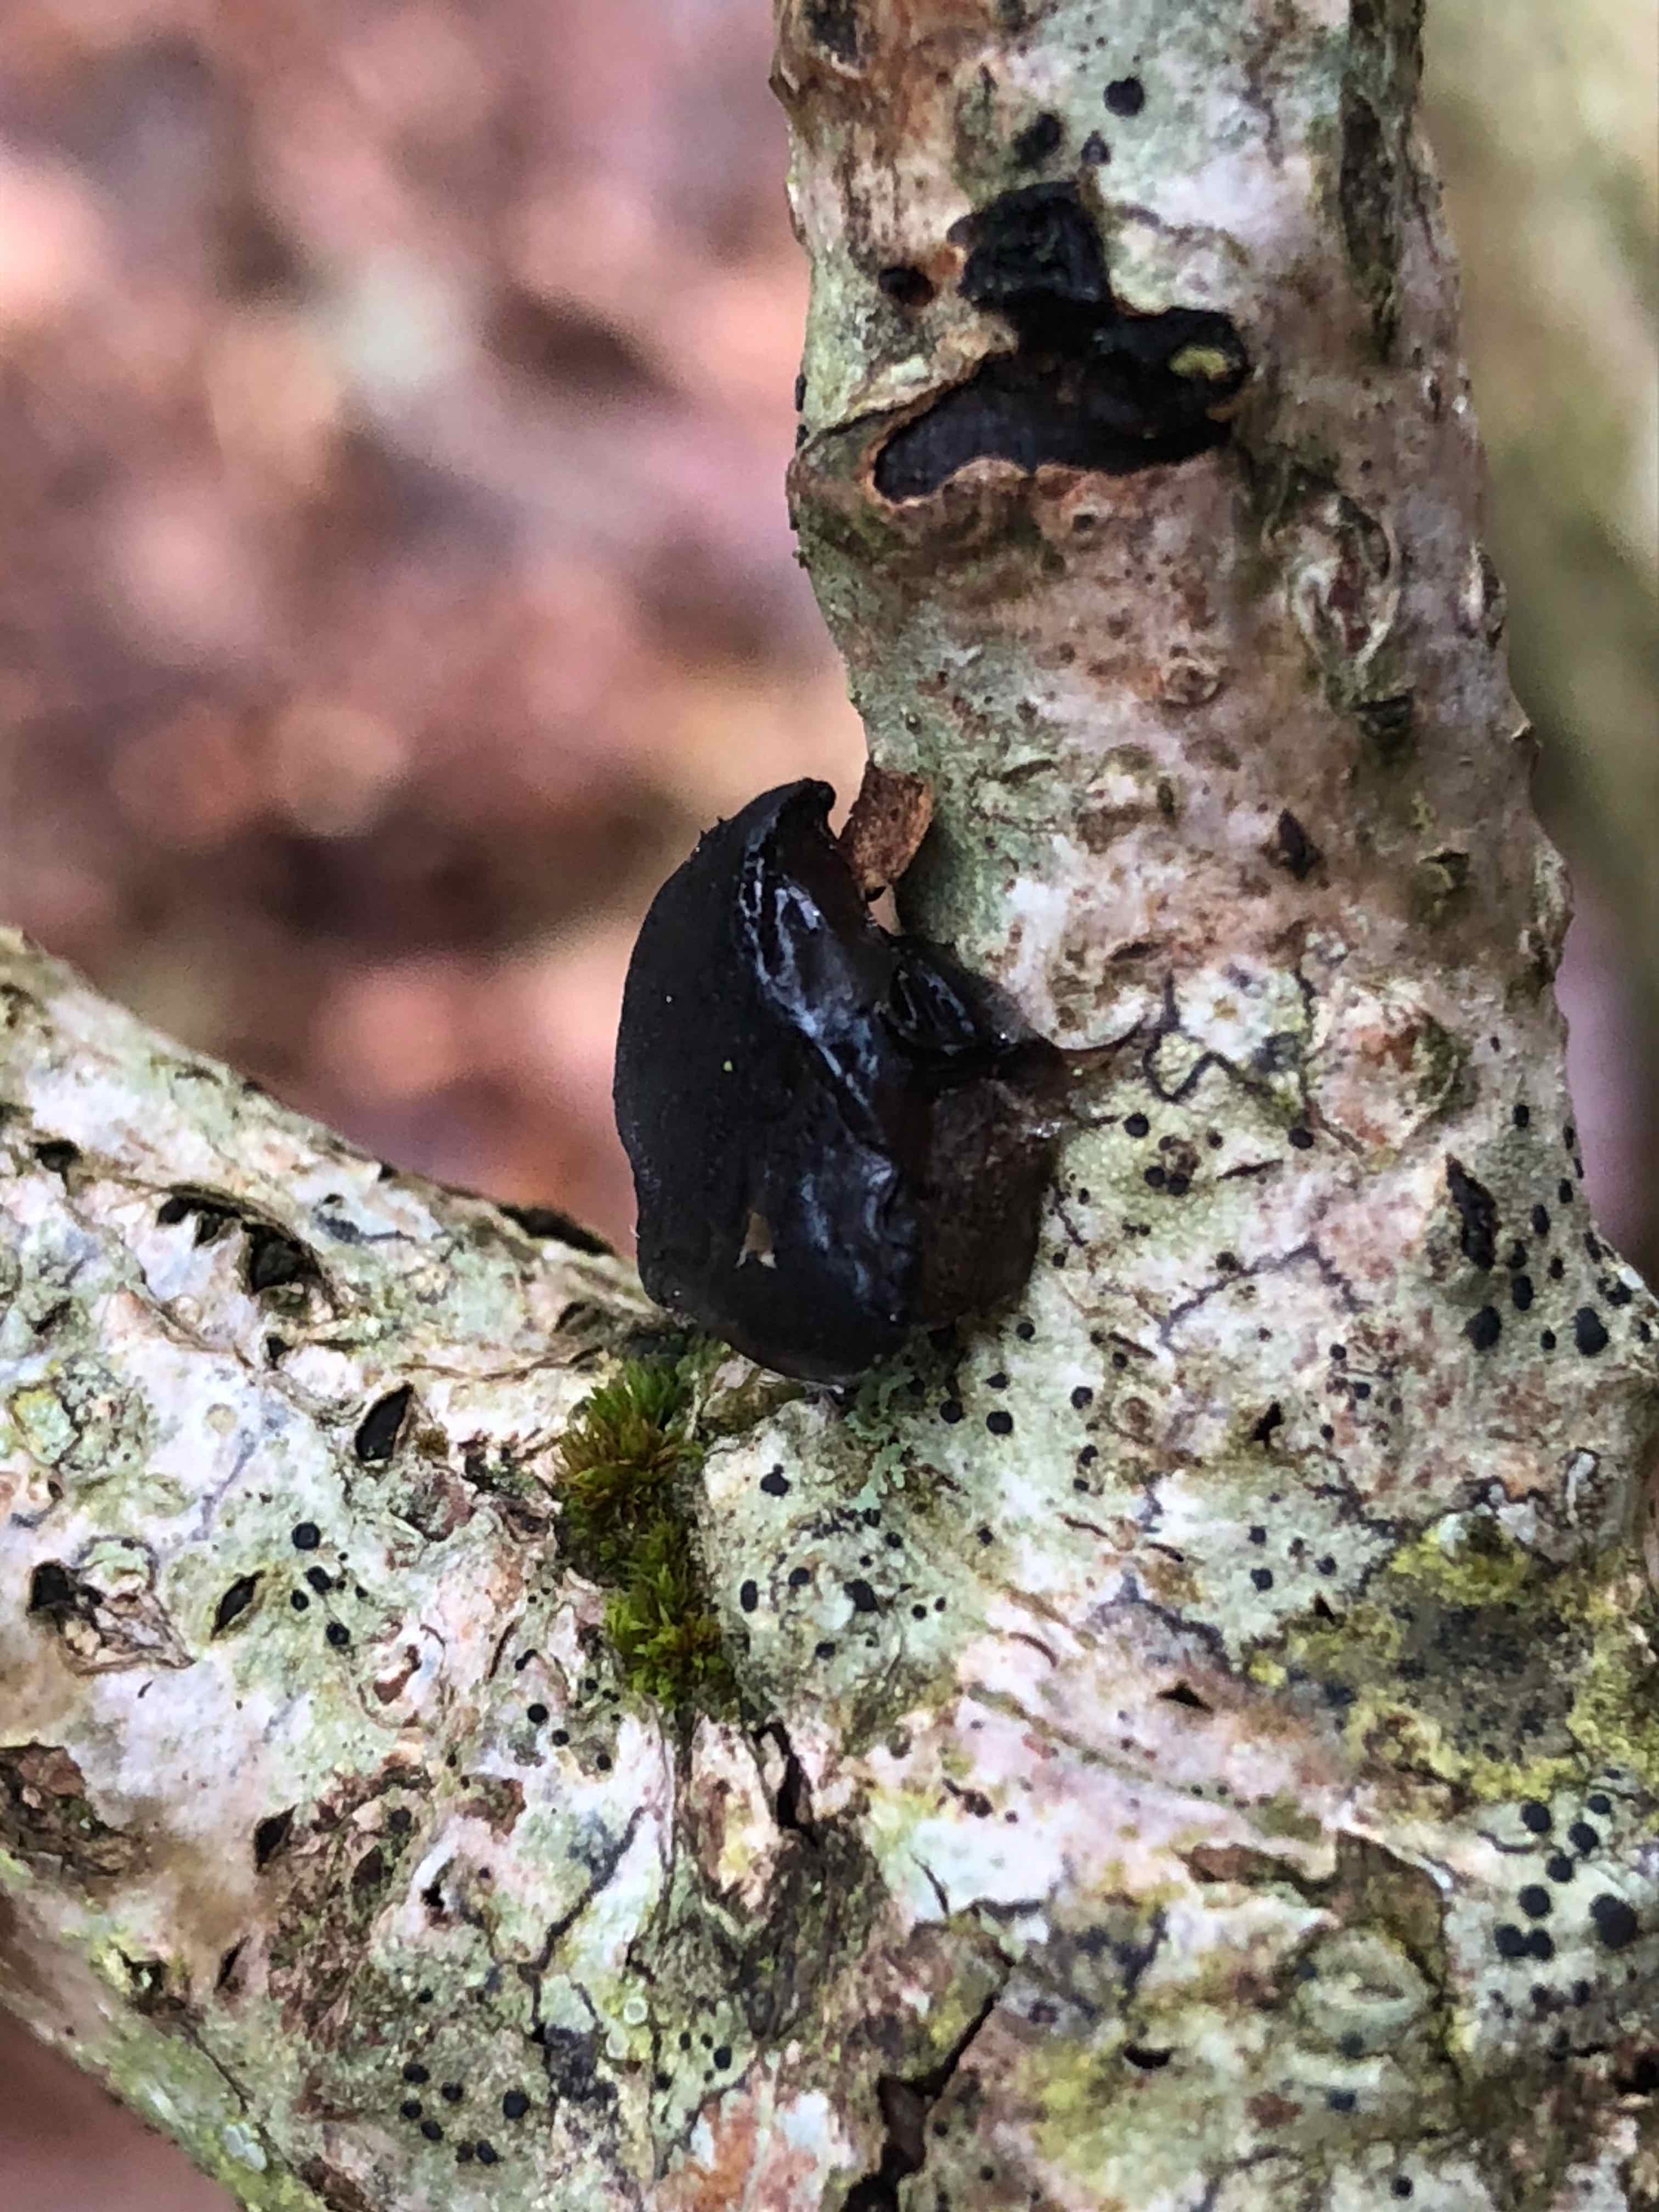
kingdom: Fungi
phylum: Basidiomycota
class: Agaricomycetes
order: Auriculariales
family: Auriculariaceae
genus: Exidia
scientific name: Exidia glandulosa
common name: ege-bævretop
